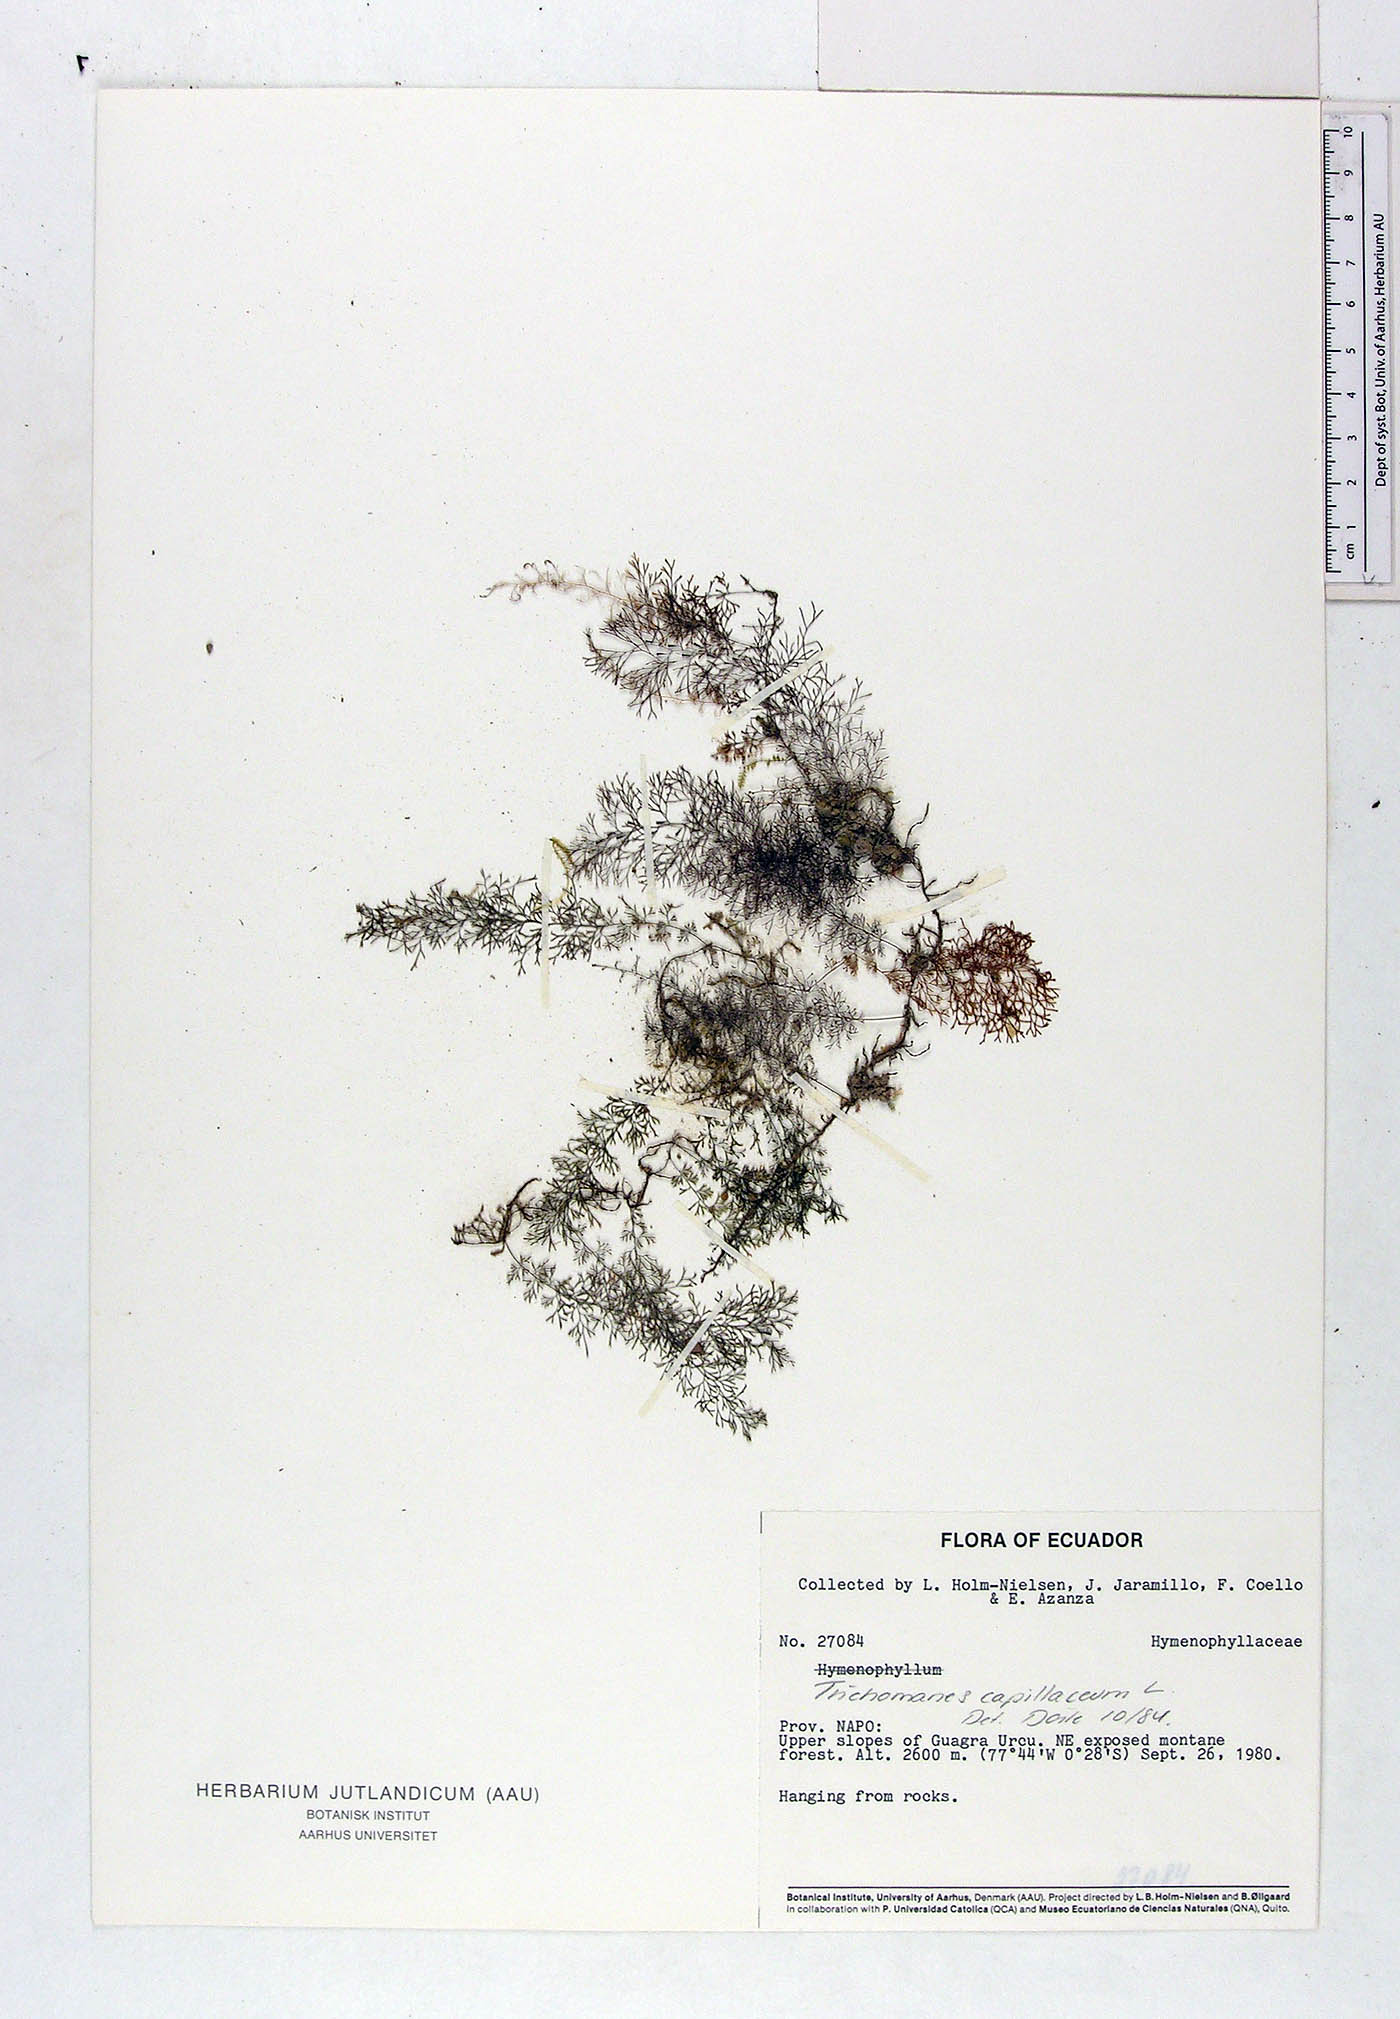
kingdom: Plantae
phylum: Tracheophyta
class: Polypodiopsida
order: Hymenophyllales
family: Hymenophyllaceae
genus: Polyphlebium
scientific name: Polyphlebium capillaceum
